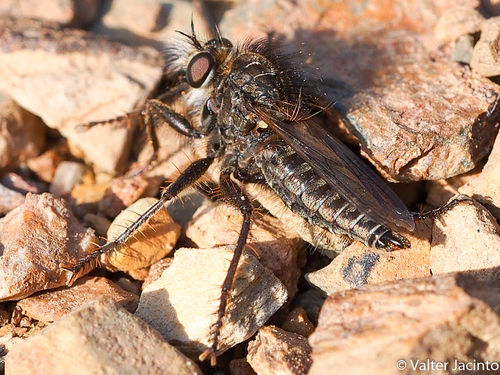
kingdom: Animalia
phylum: Arthropoda
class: Insecta
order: Diptera
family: Asilidae
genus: Dysmachus
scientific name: Dysmachus
